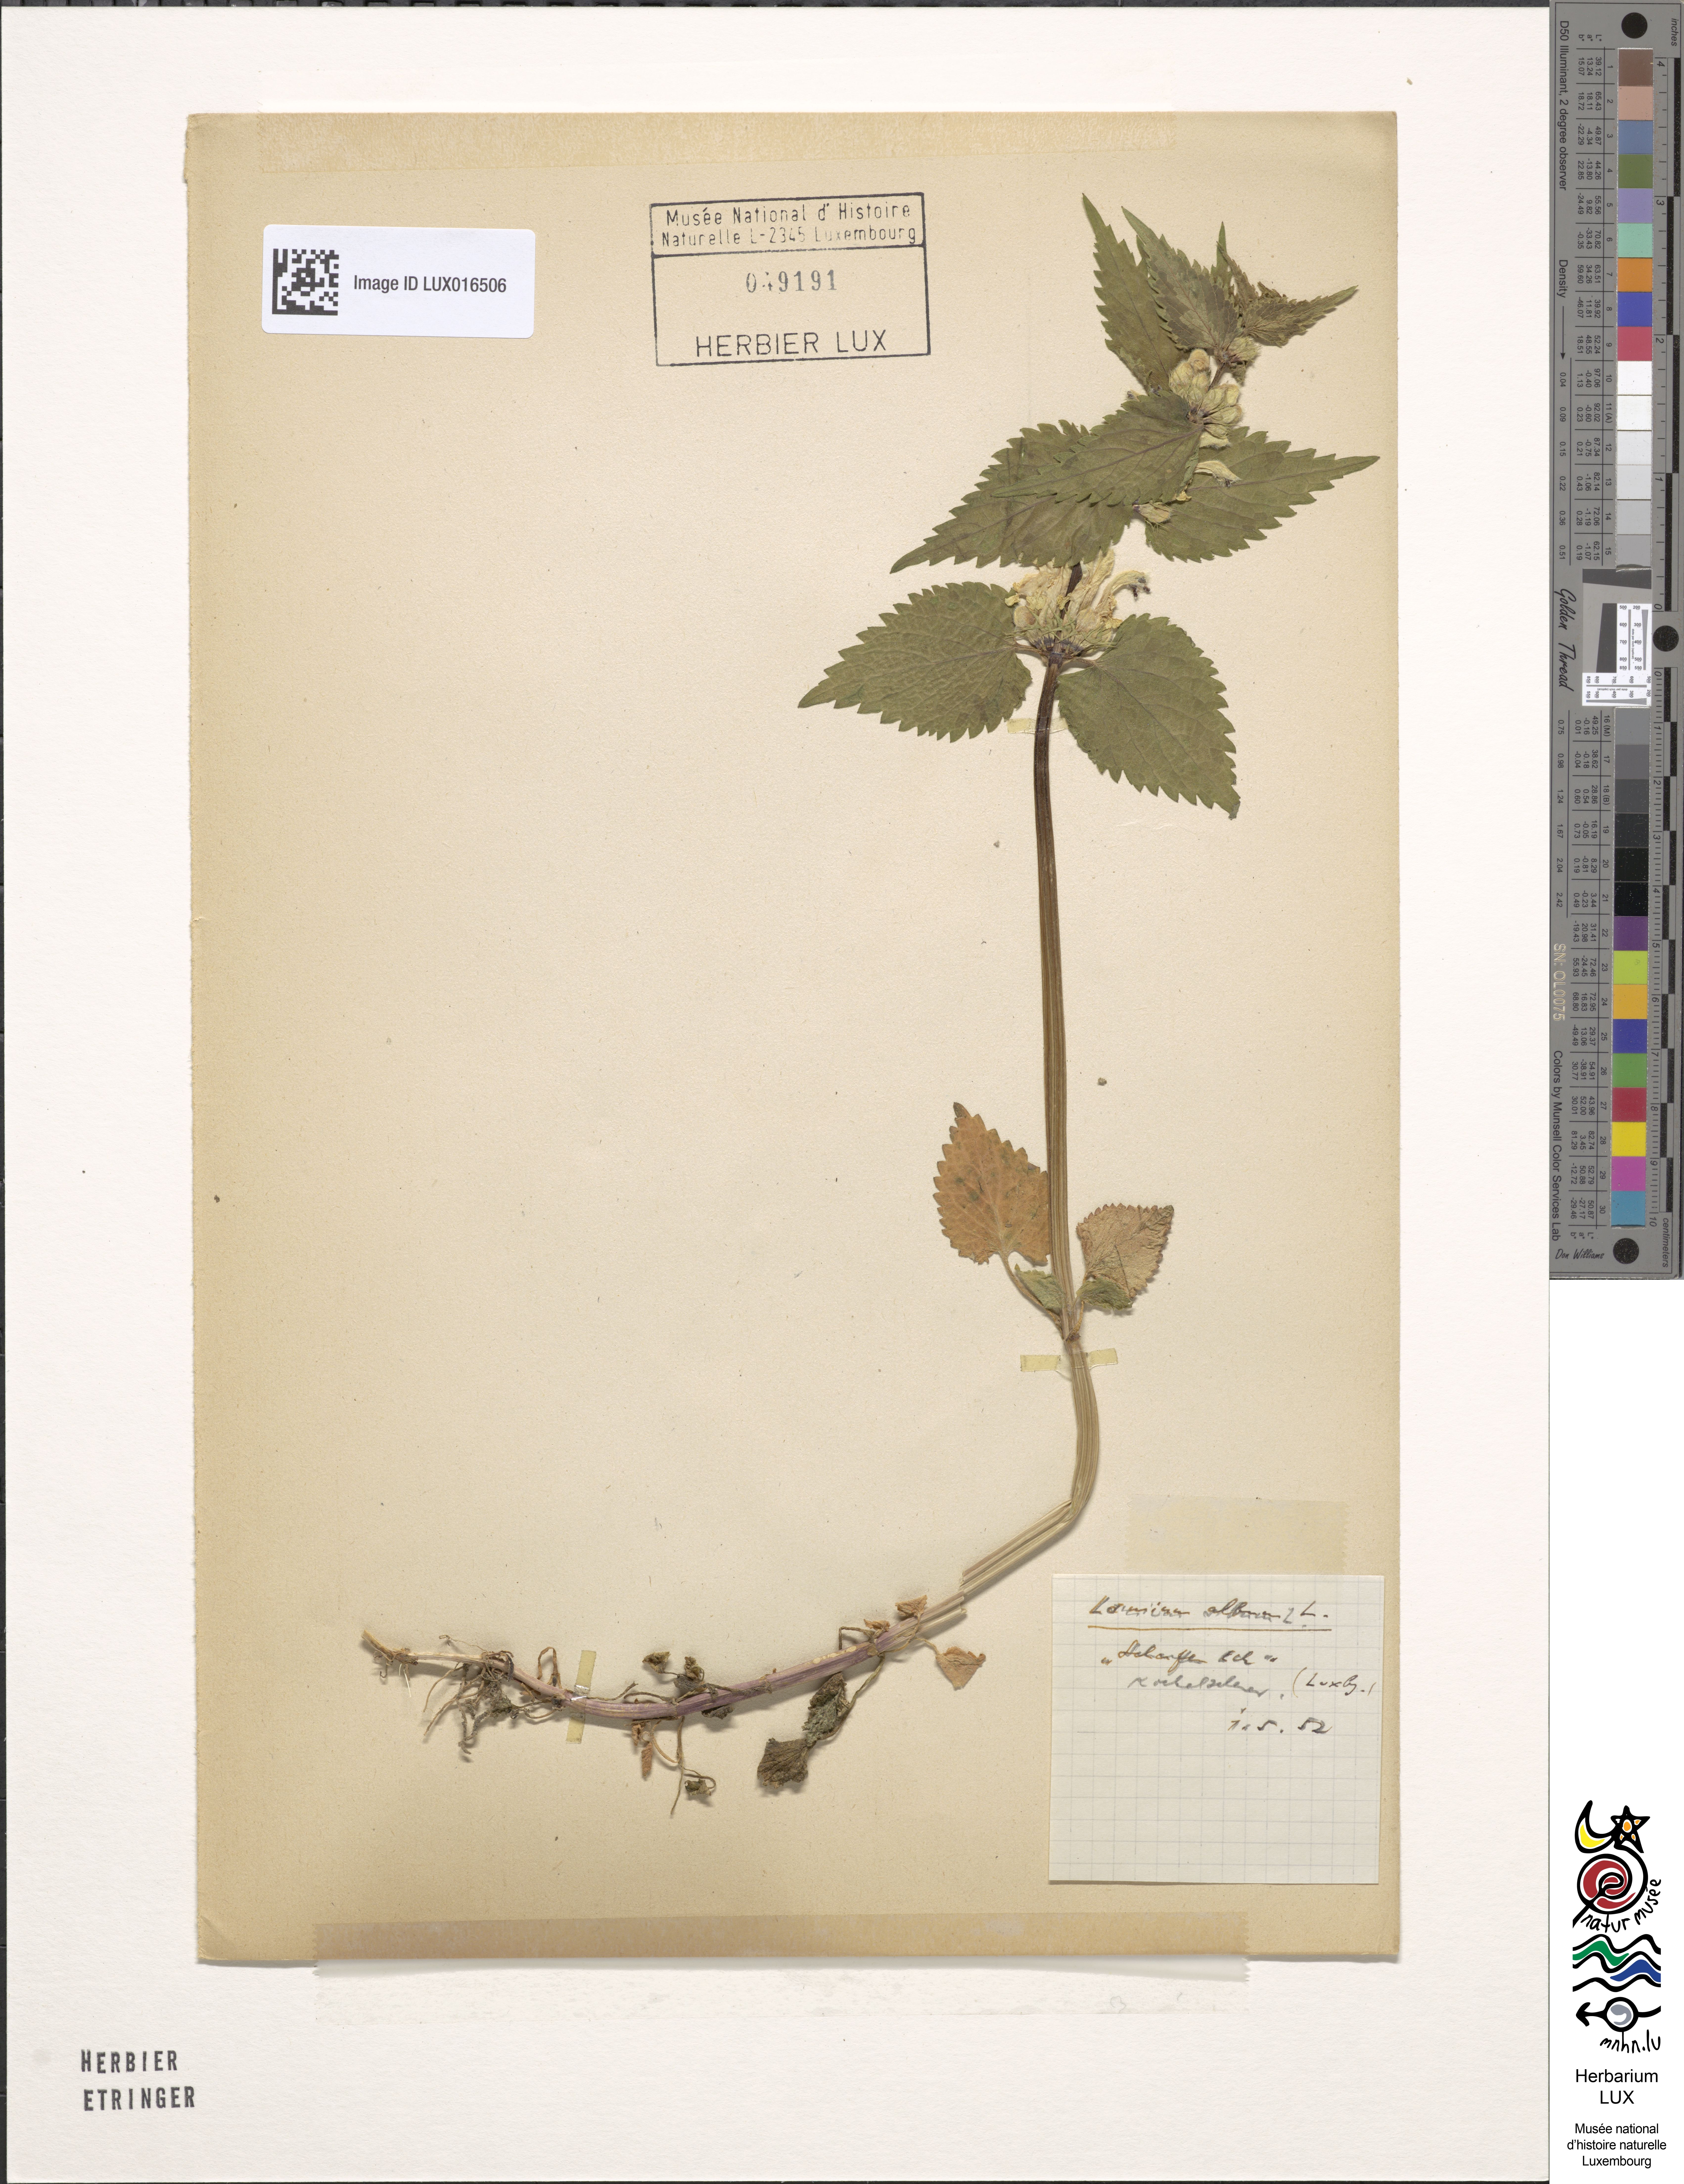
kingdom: Plantae
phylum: Tracheophyta
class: Magnoliopsida
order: Lamiales
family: Lamiaceae
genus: Lamium
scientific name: Lamium album
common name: White dead-nettle
